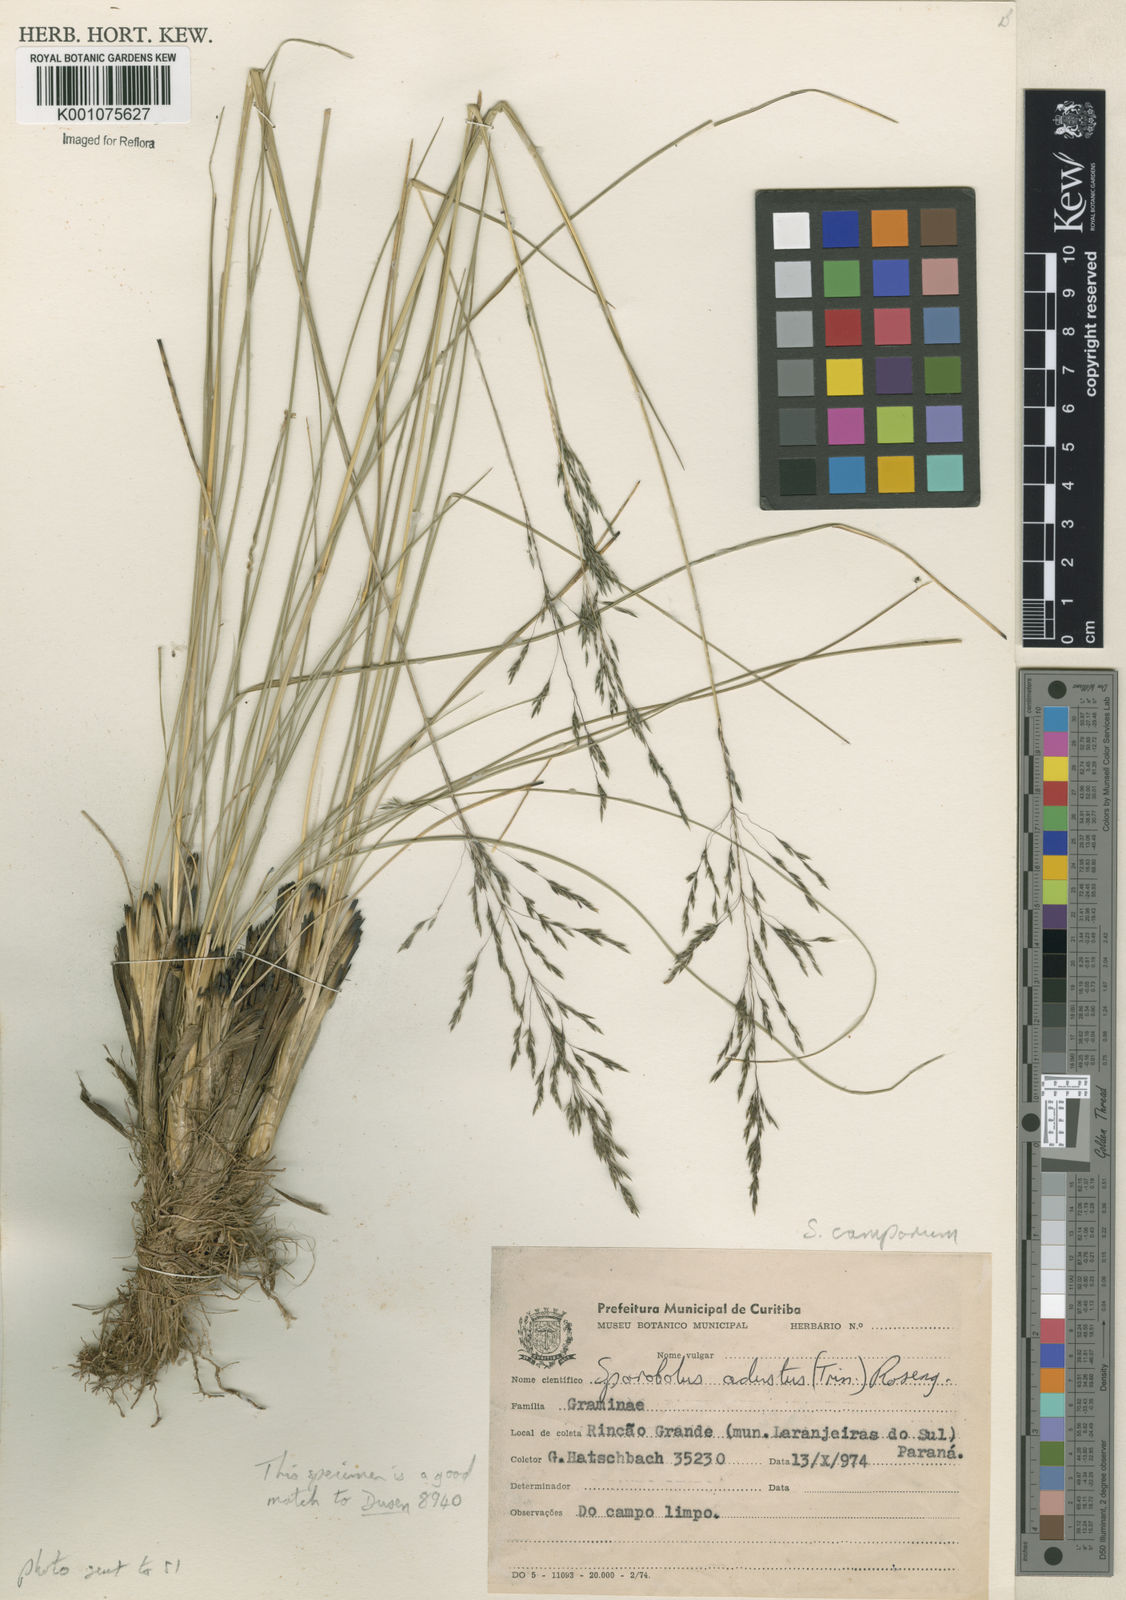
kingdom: Plantae
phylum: Tracheophyta
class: Liliopsida
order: Poales
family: Poaceae
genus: Sporobolus
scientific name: Sporobolus camporum
